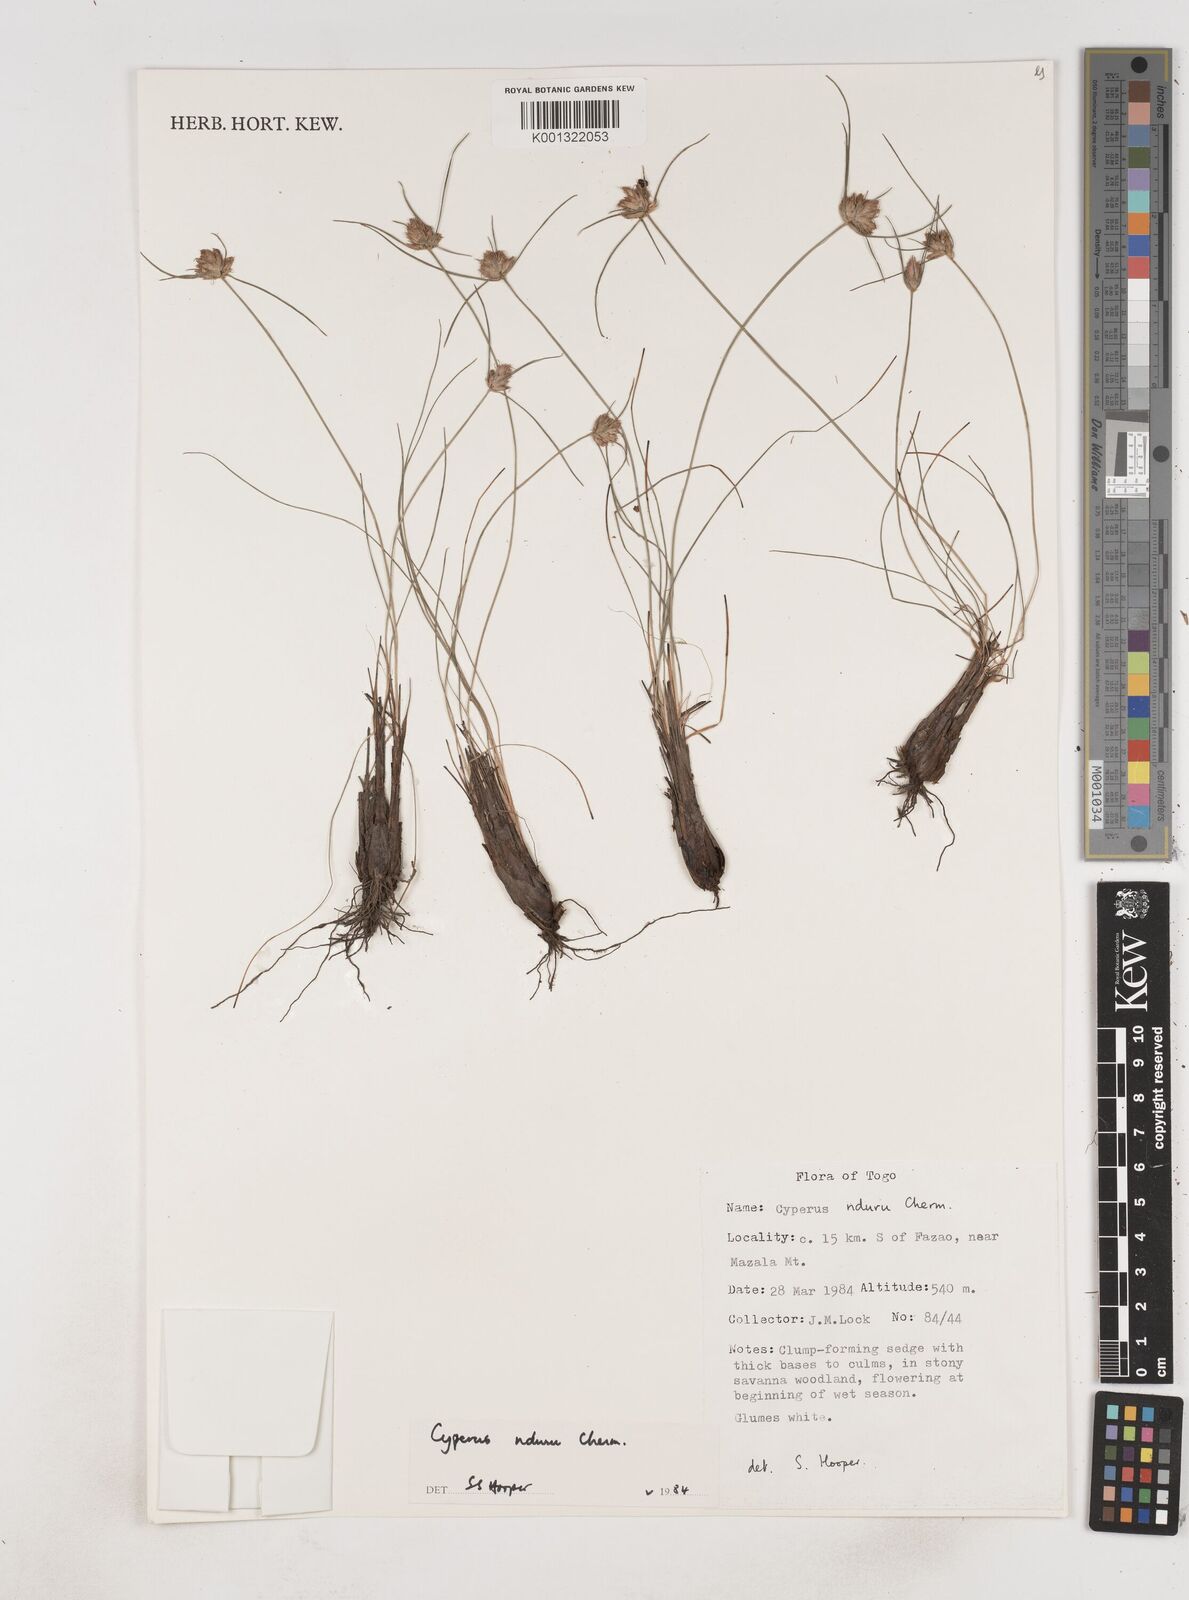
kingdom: Plantae
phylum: Tracheophyta
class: Liliopsida
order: Poales
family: Cyperaceae
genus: Cyperus
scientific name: Cyperus nduru
